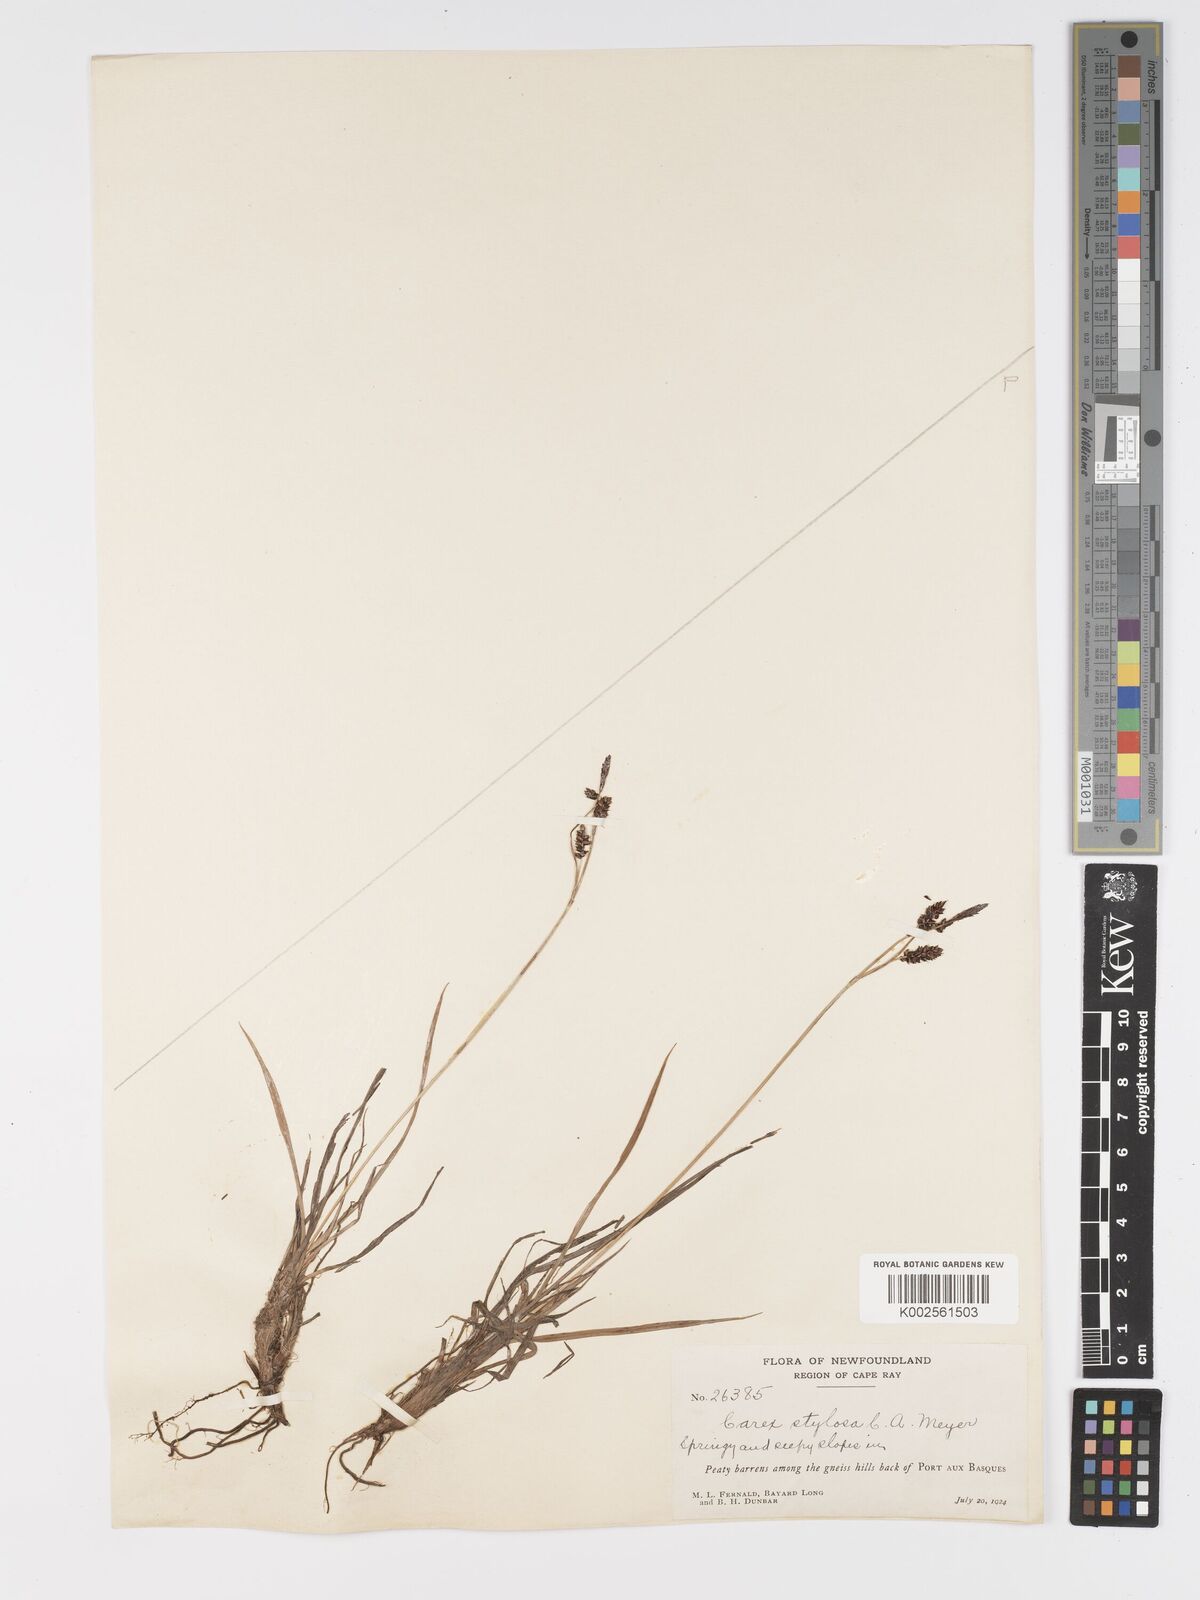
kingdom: Plantae
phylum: Tracheophyta
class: Liliopsida
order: Poales
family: Cyperaceae
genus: Carex
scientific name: Carex stylosa
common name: Long-styled sedge
